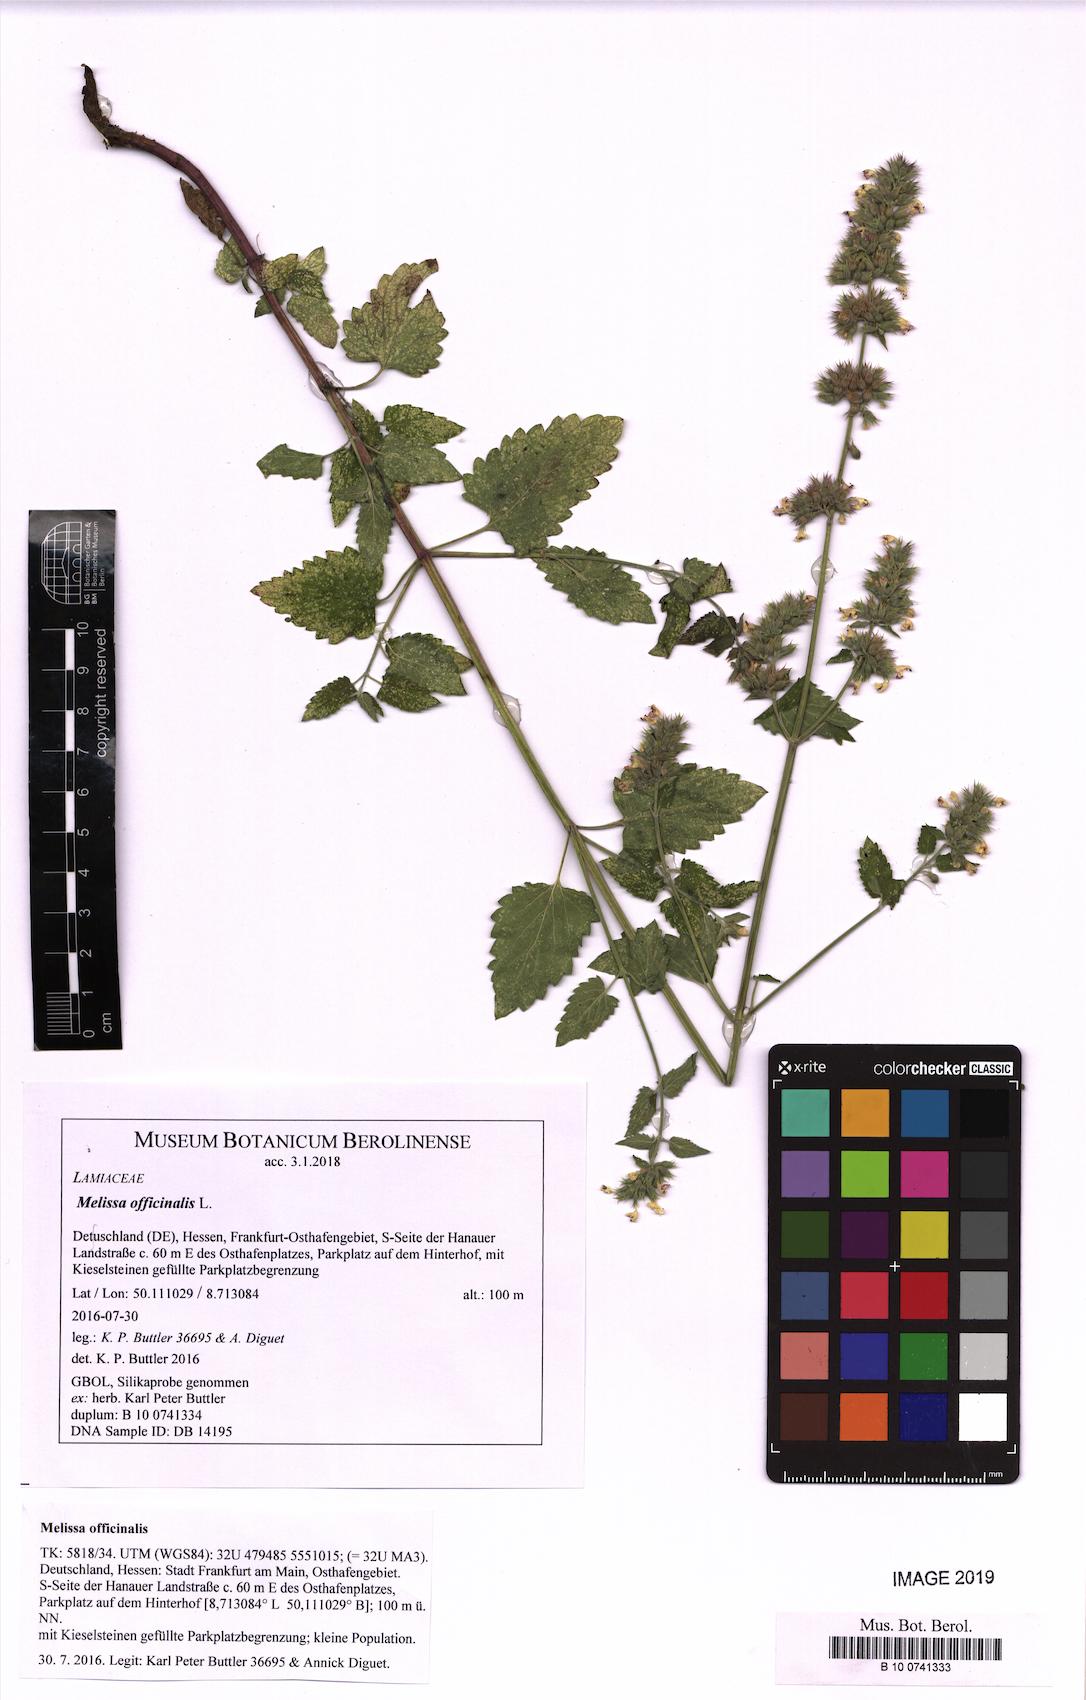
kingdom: Plantae
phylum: Tracheophyta
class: Magnoliopsida
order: Lamiales
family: Lamiaceae
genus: Melissa
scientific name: Melissa officinalis
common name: Balm
